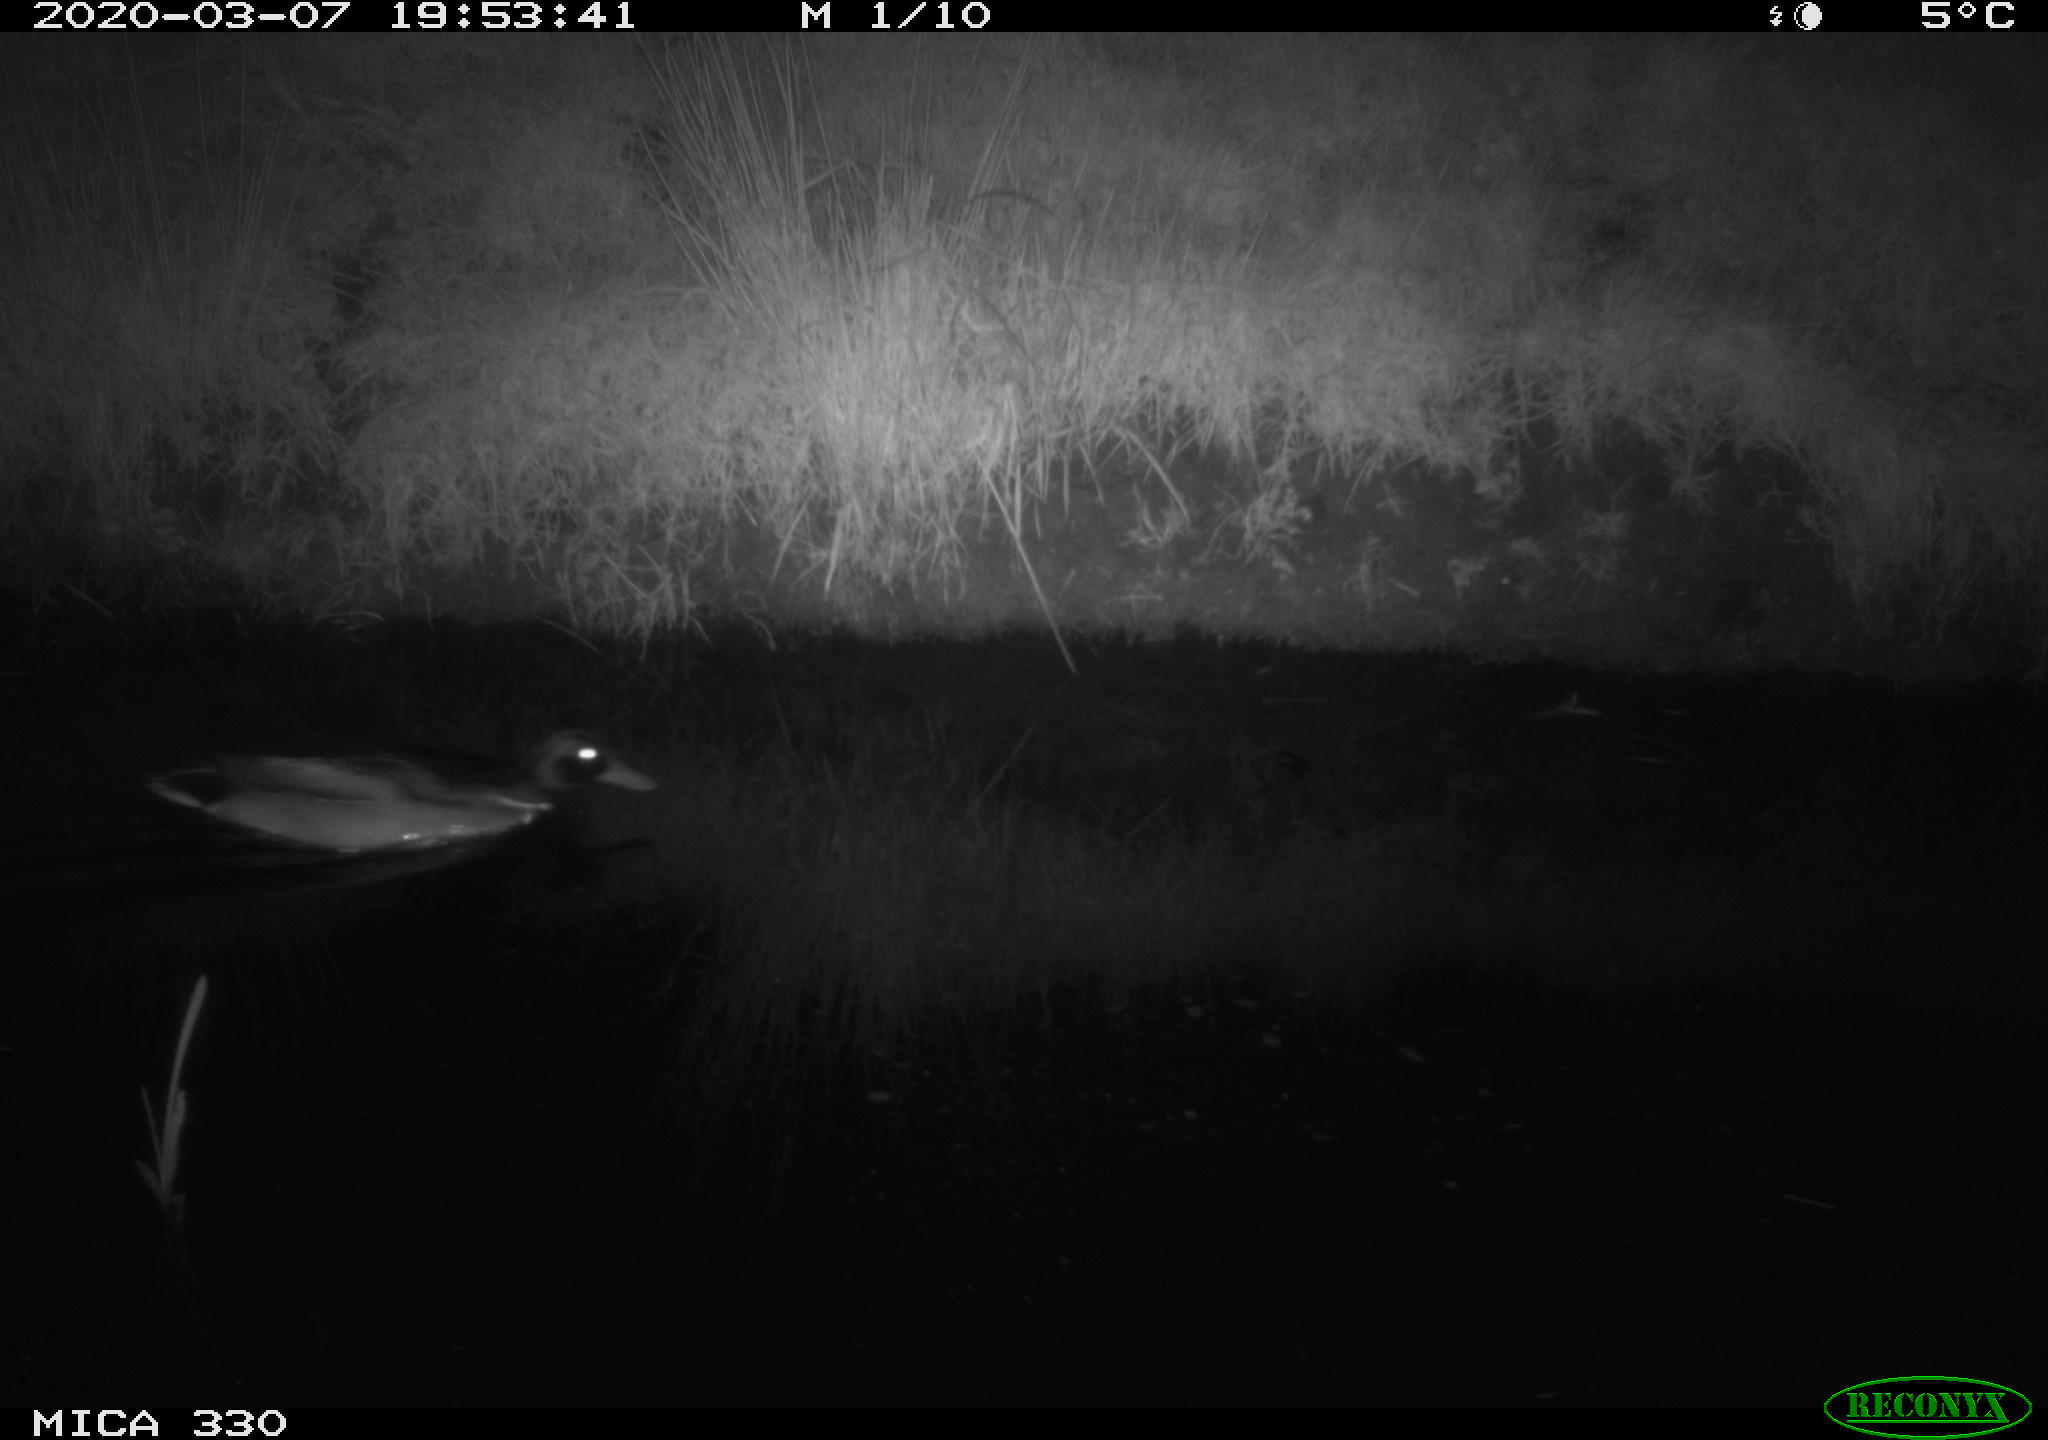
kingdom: Animalia
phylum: Chordata
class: Aves
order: Anseriformes
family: Anatidae
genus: Anas
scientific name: Anas platyrhynchos
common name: Mallard
